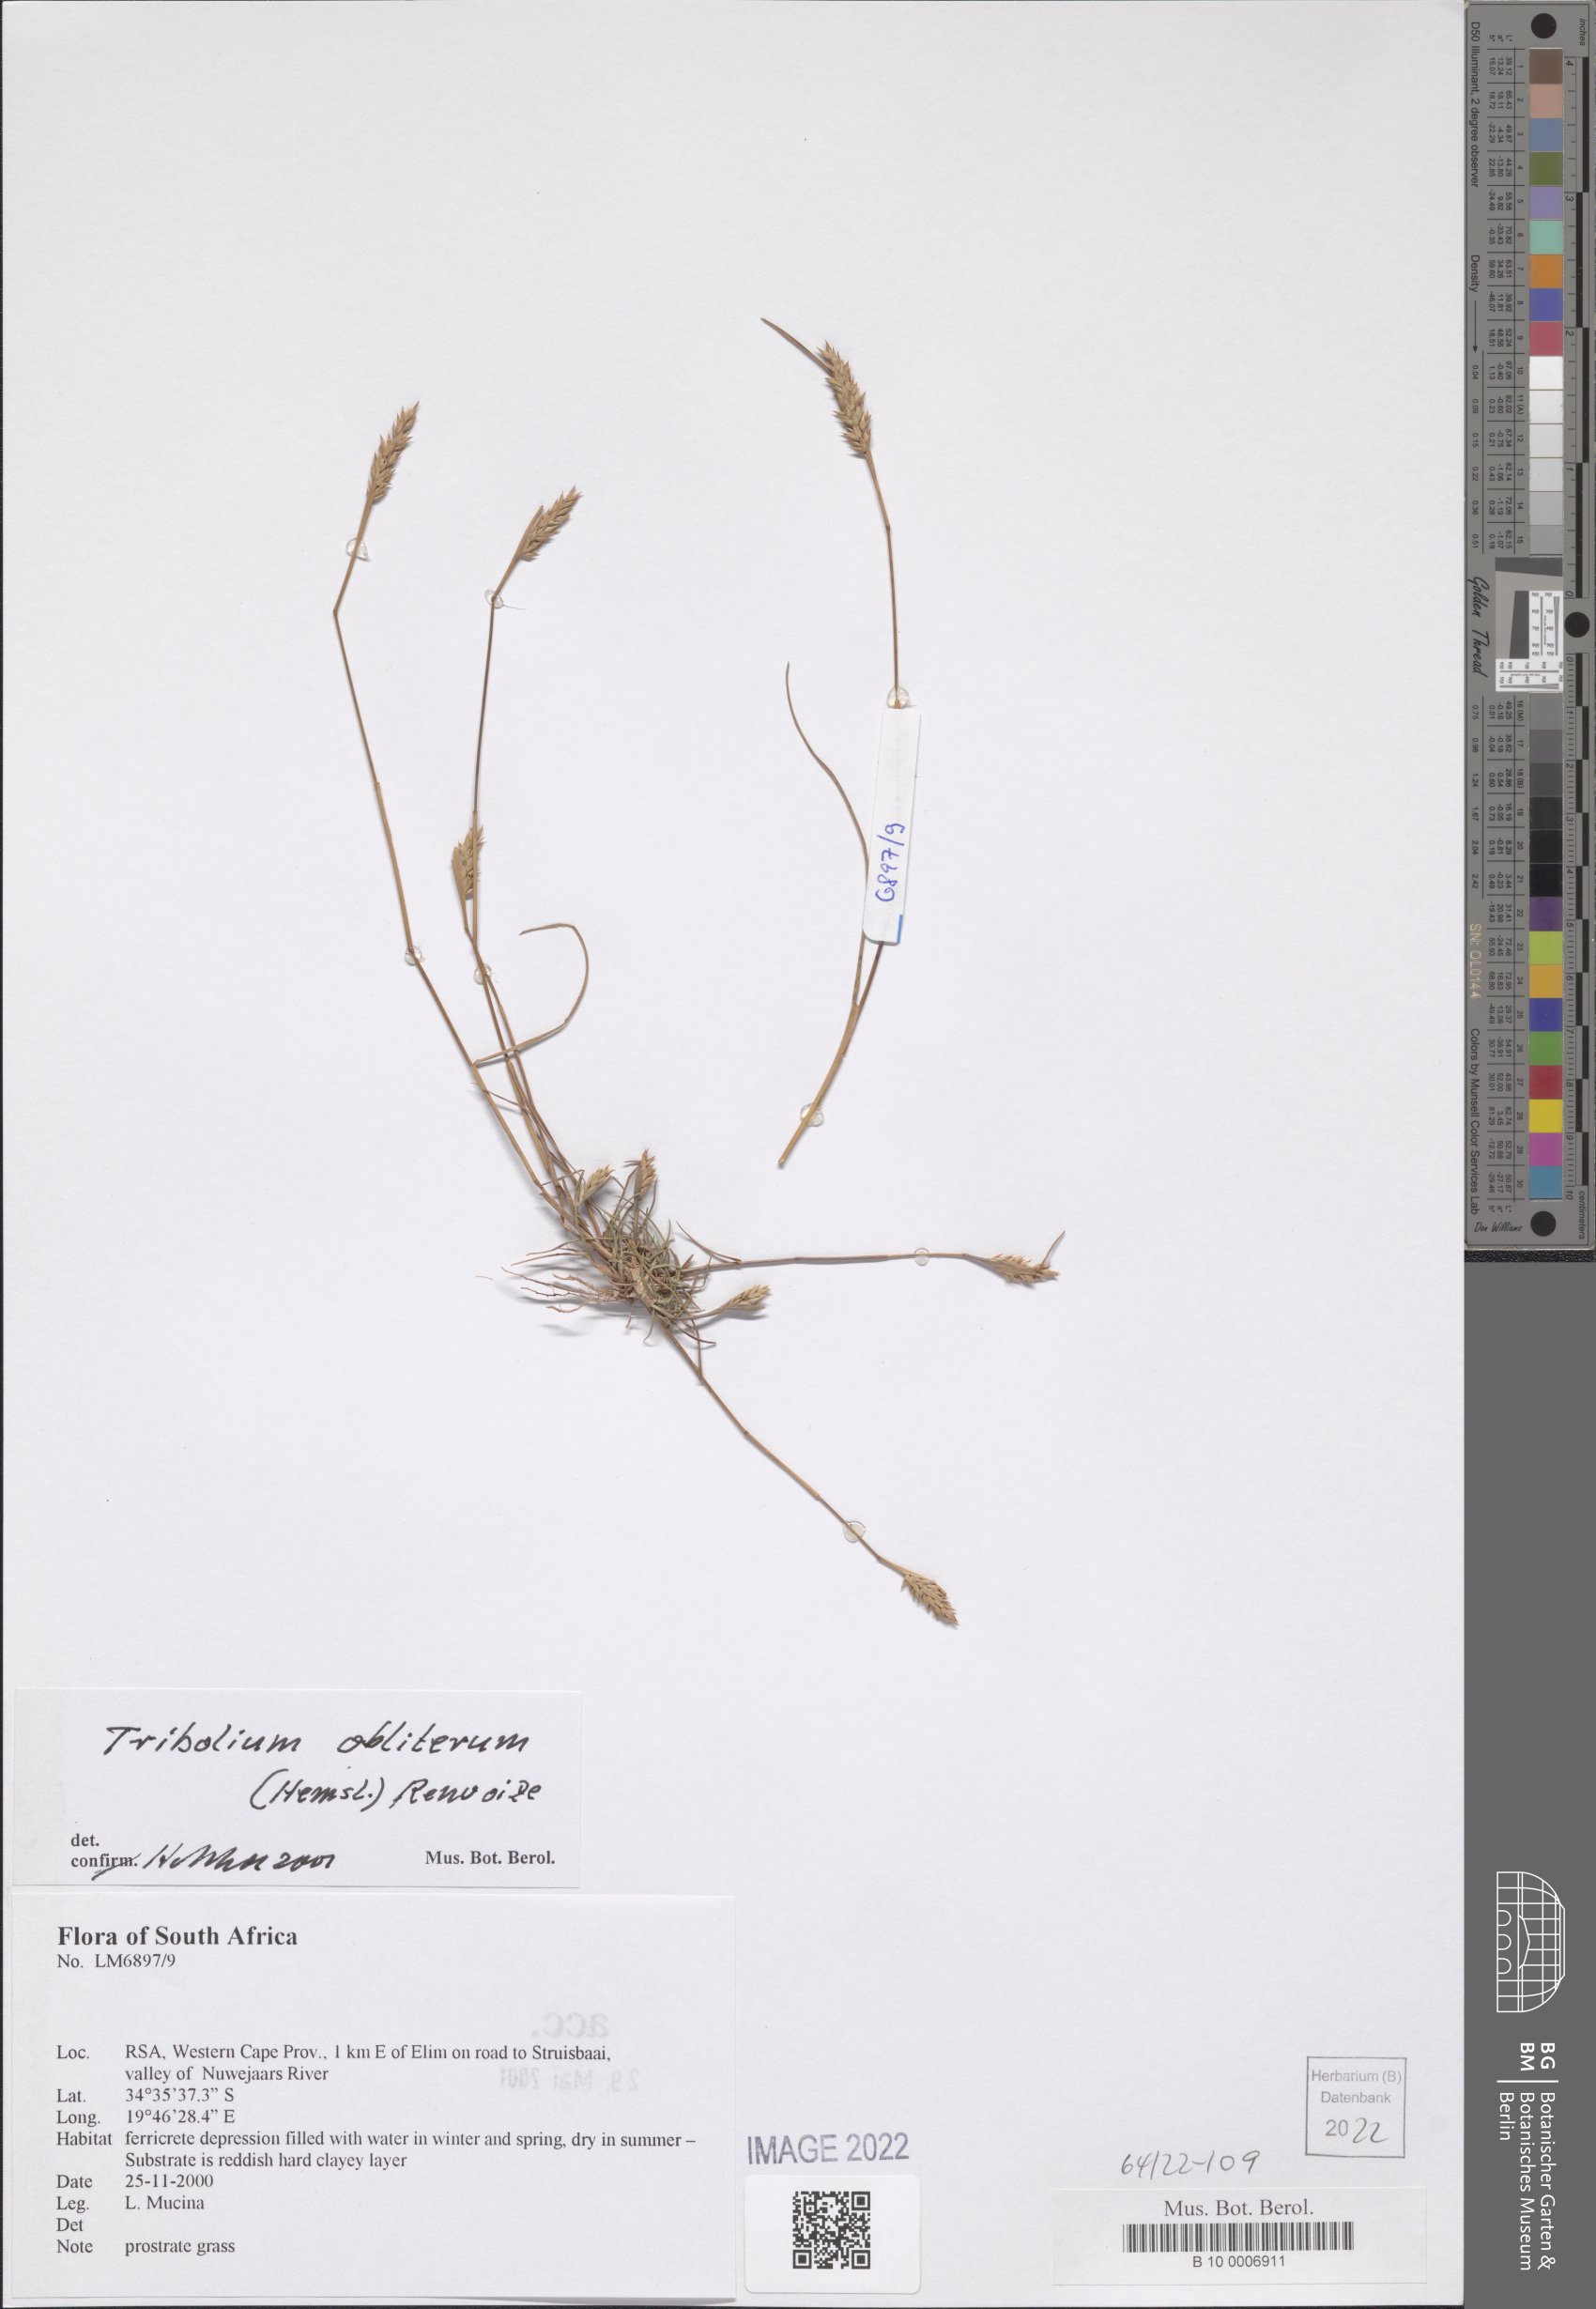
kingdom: Plantae
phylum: Tracheophyta
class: Liliopsida
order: Poales
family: Poaceae
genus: Tribolium
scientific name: Tribolium obliterum
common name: Capetown grass
